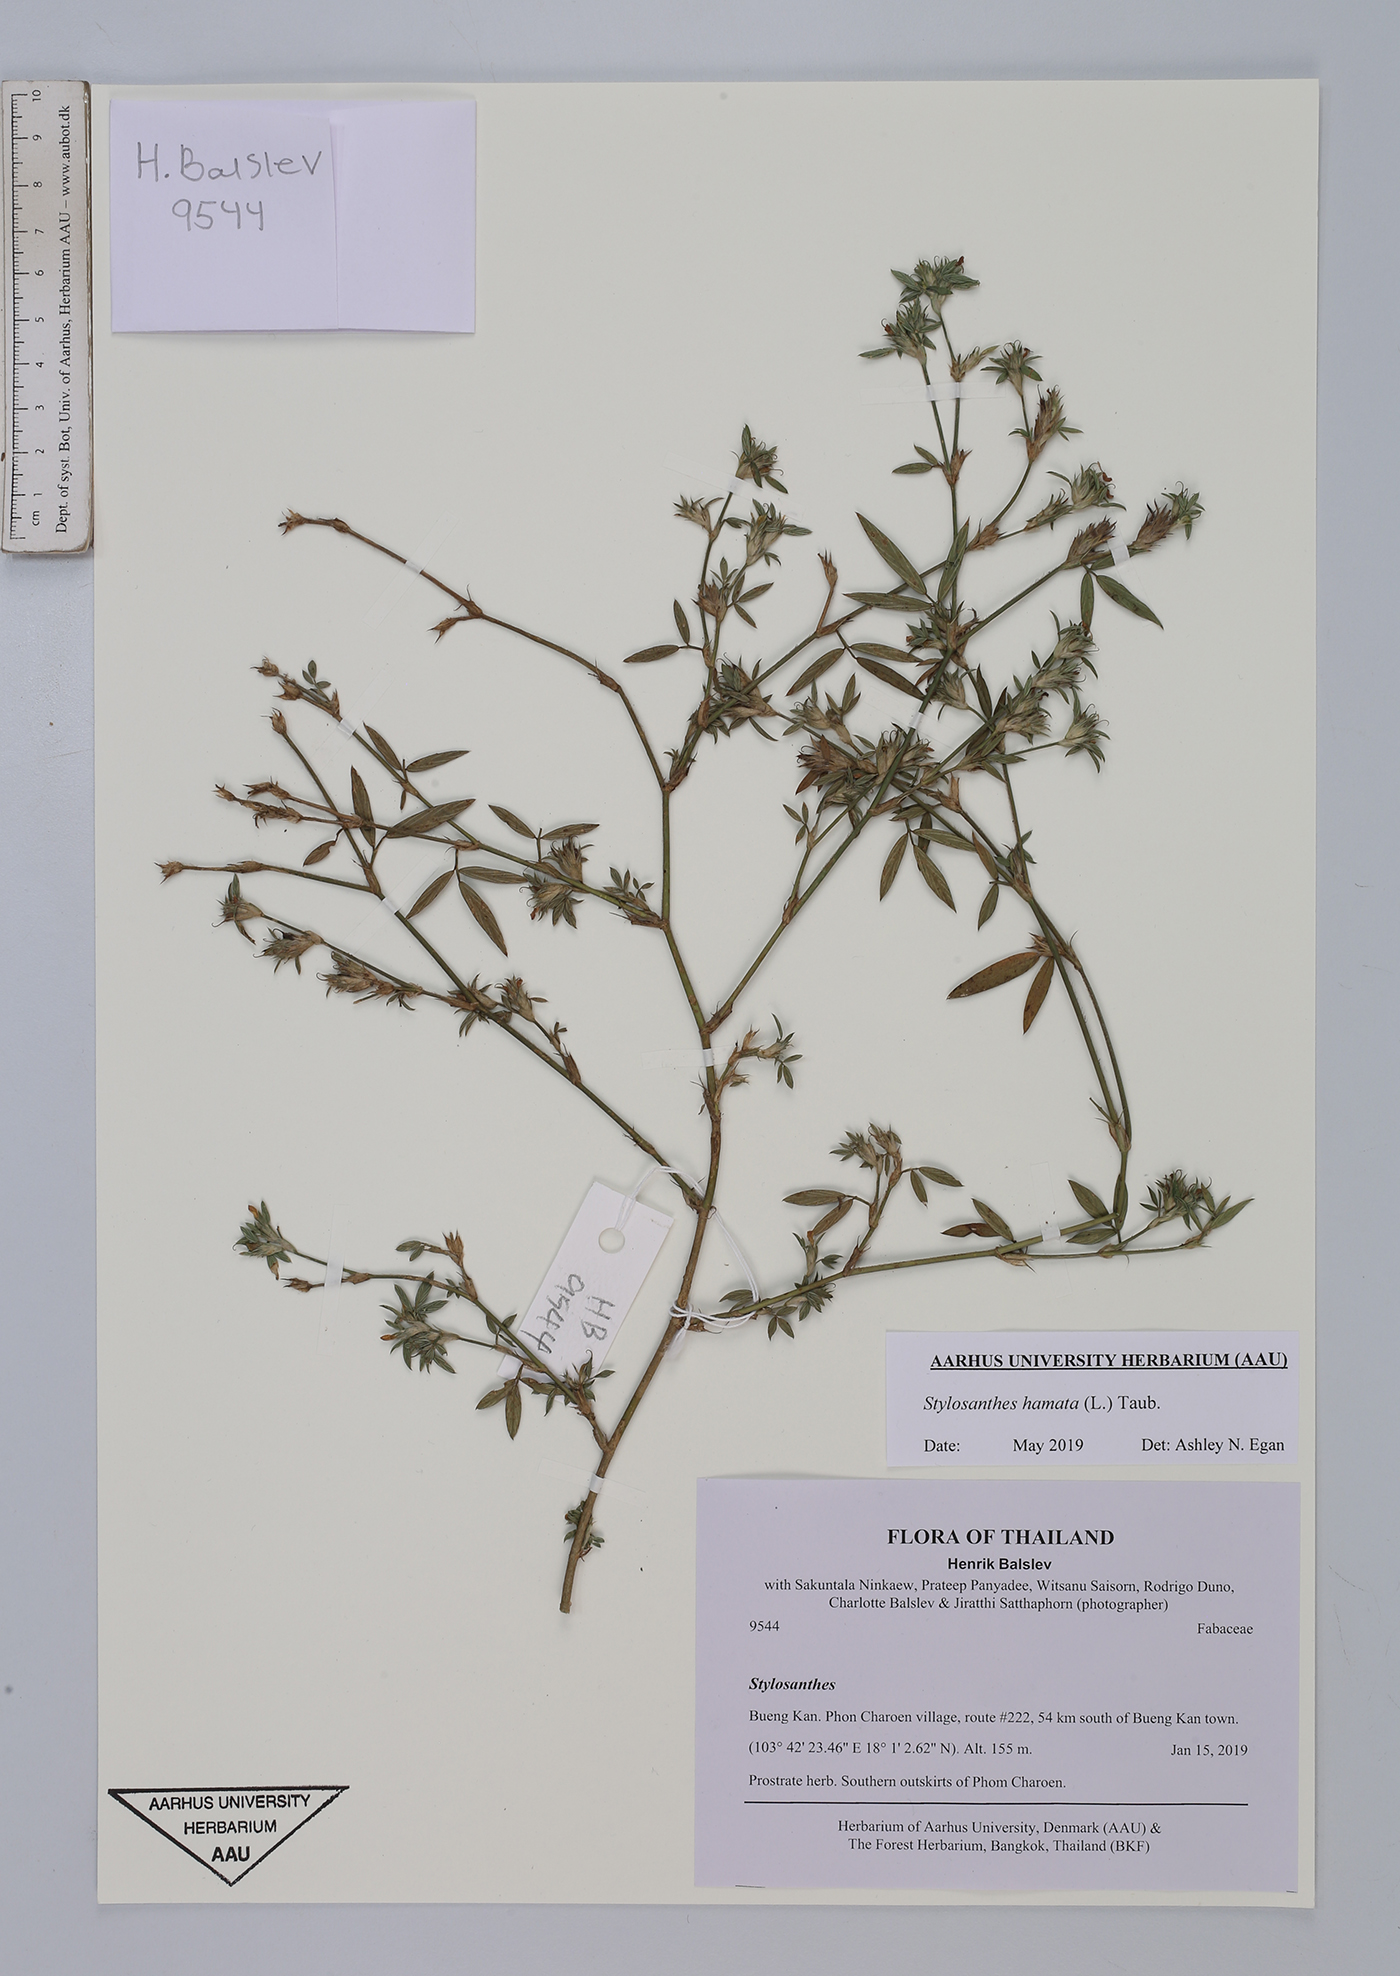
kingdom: Plantae
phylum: Tracheophyta
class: Magnoliopsida
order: Fabales
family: Fabaceae
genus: Stylosanthes
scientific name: Stylosanthes hamata
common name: Cheesytoes
